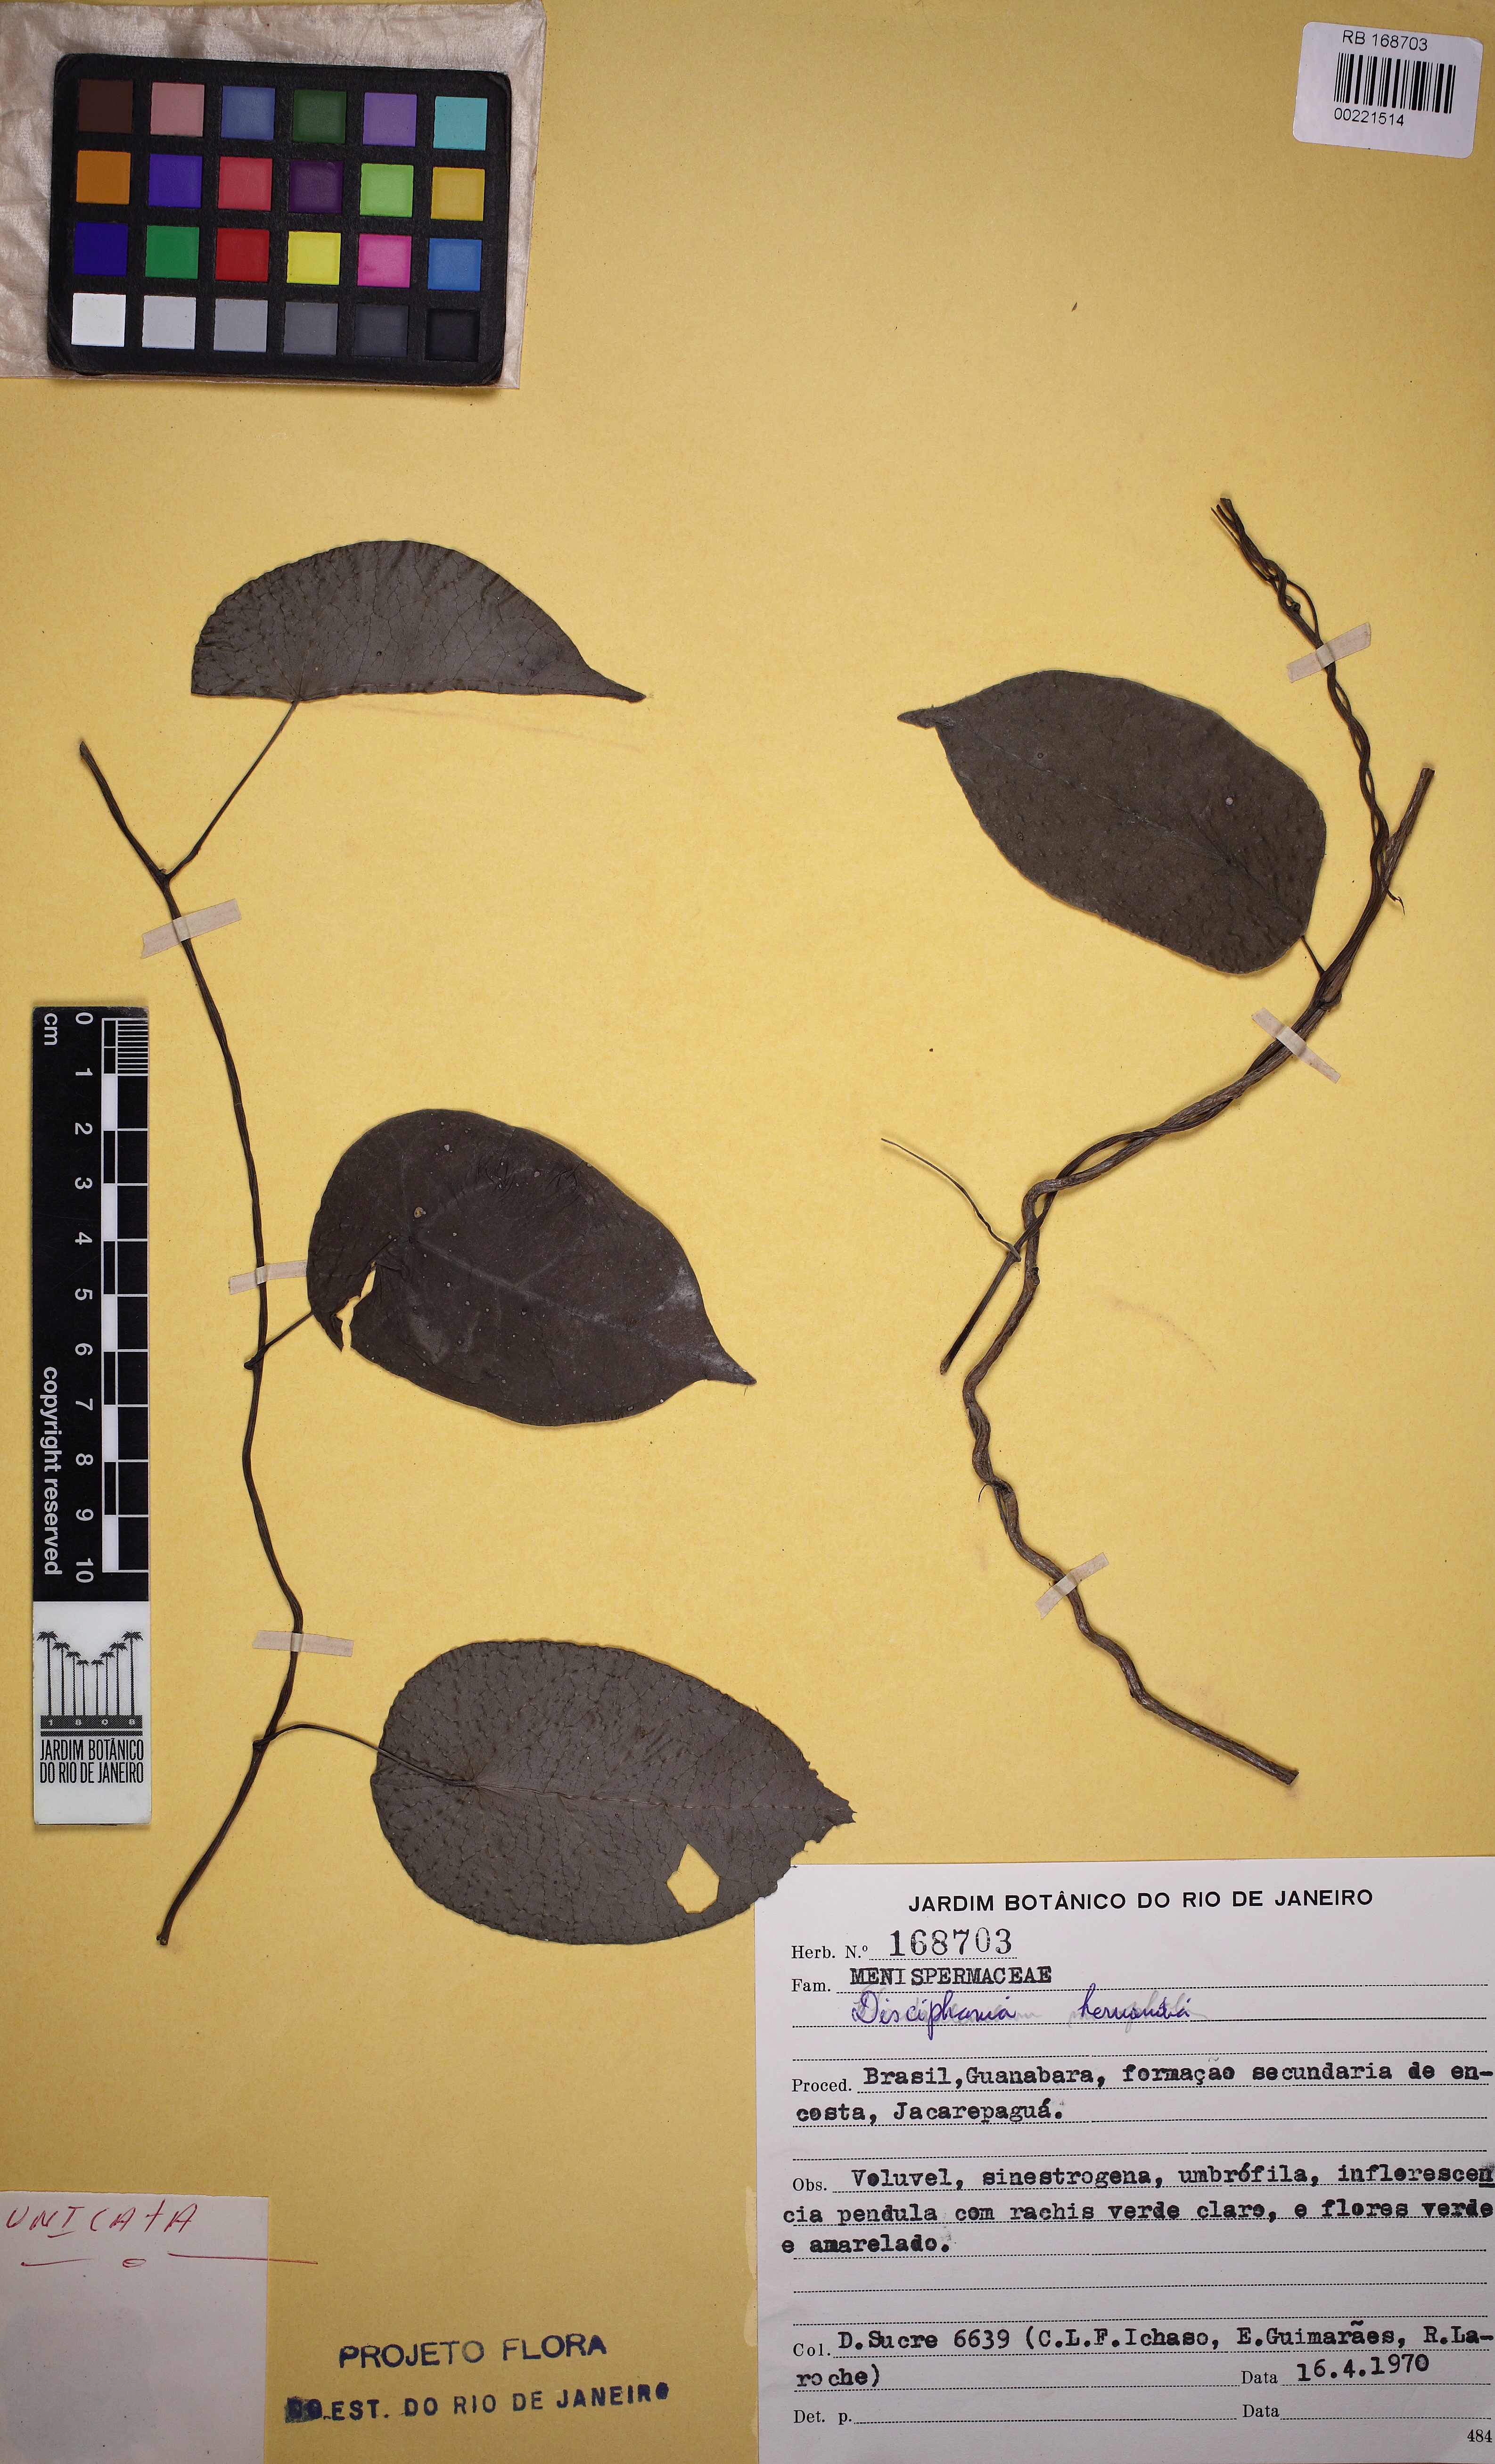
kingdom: Plantae
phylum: Tracheophyta
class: Magnoliopsida
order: Ranunculales
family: Menispermaceae
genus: Disciphania
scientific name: Disciphania hernandia
